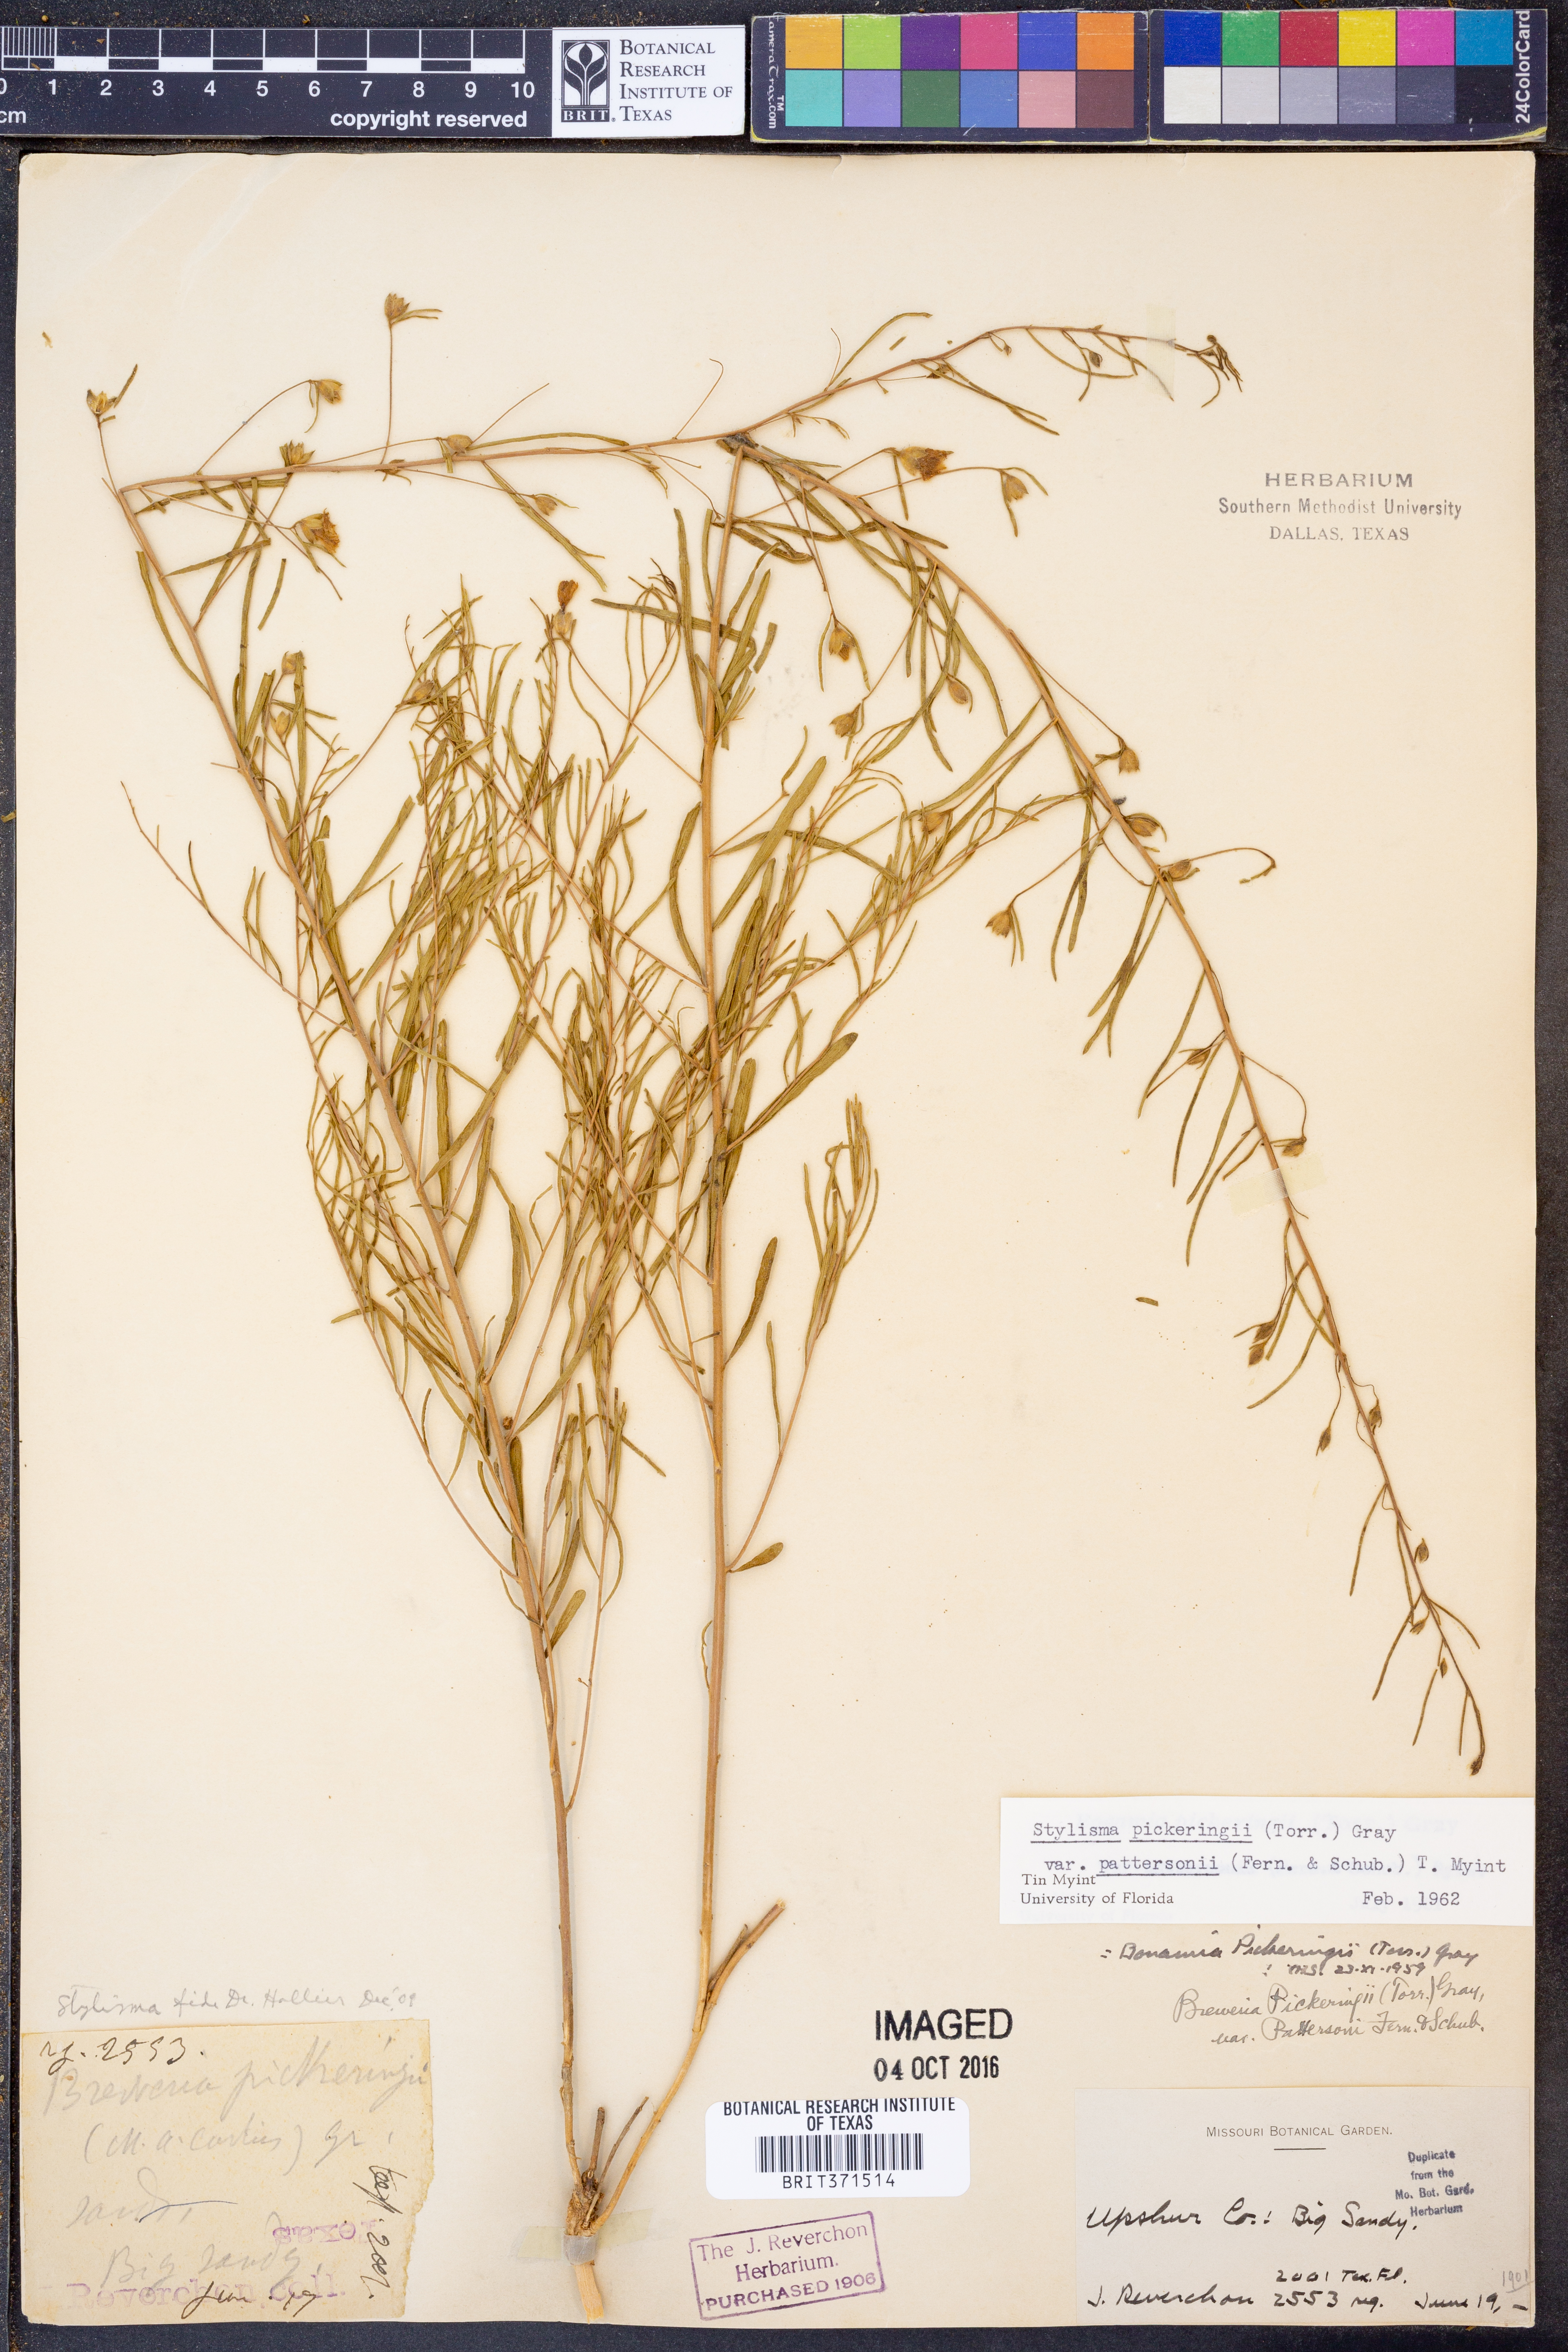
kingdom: Plantae
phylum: Tracheophyta
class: Magnoliopsida
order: Solanales
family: Convolvulaceae
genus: Stylisma
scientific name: Stylisma pickeringii
